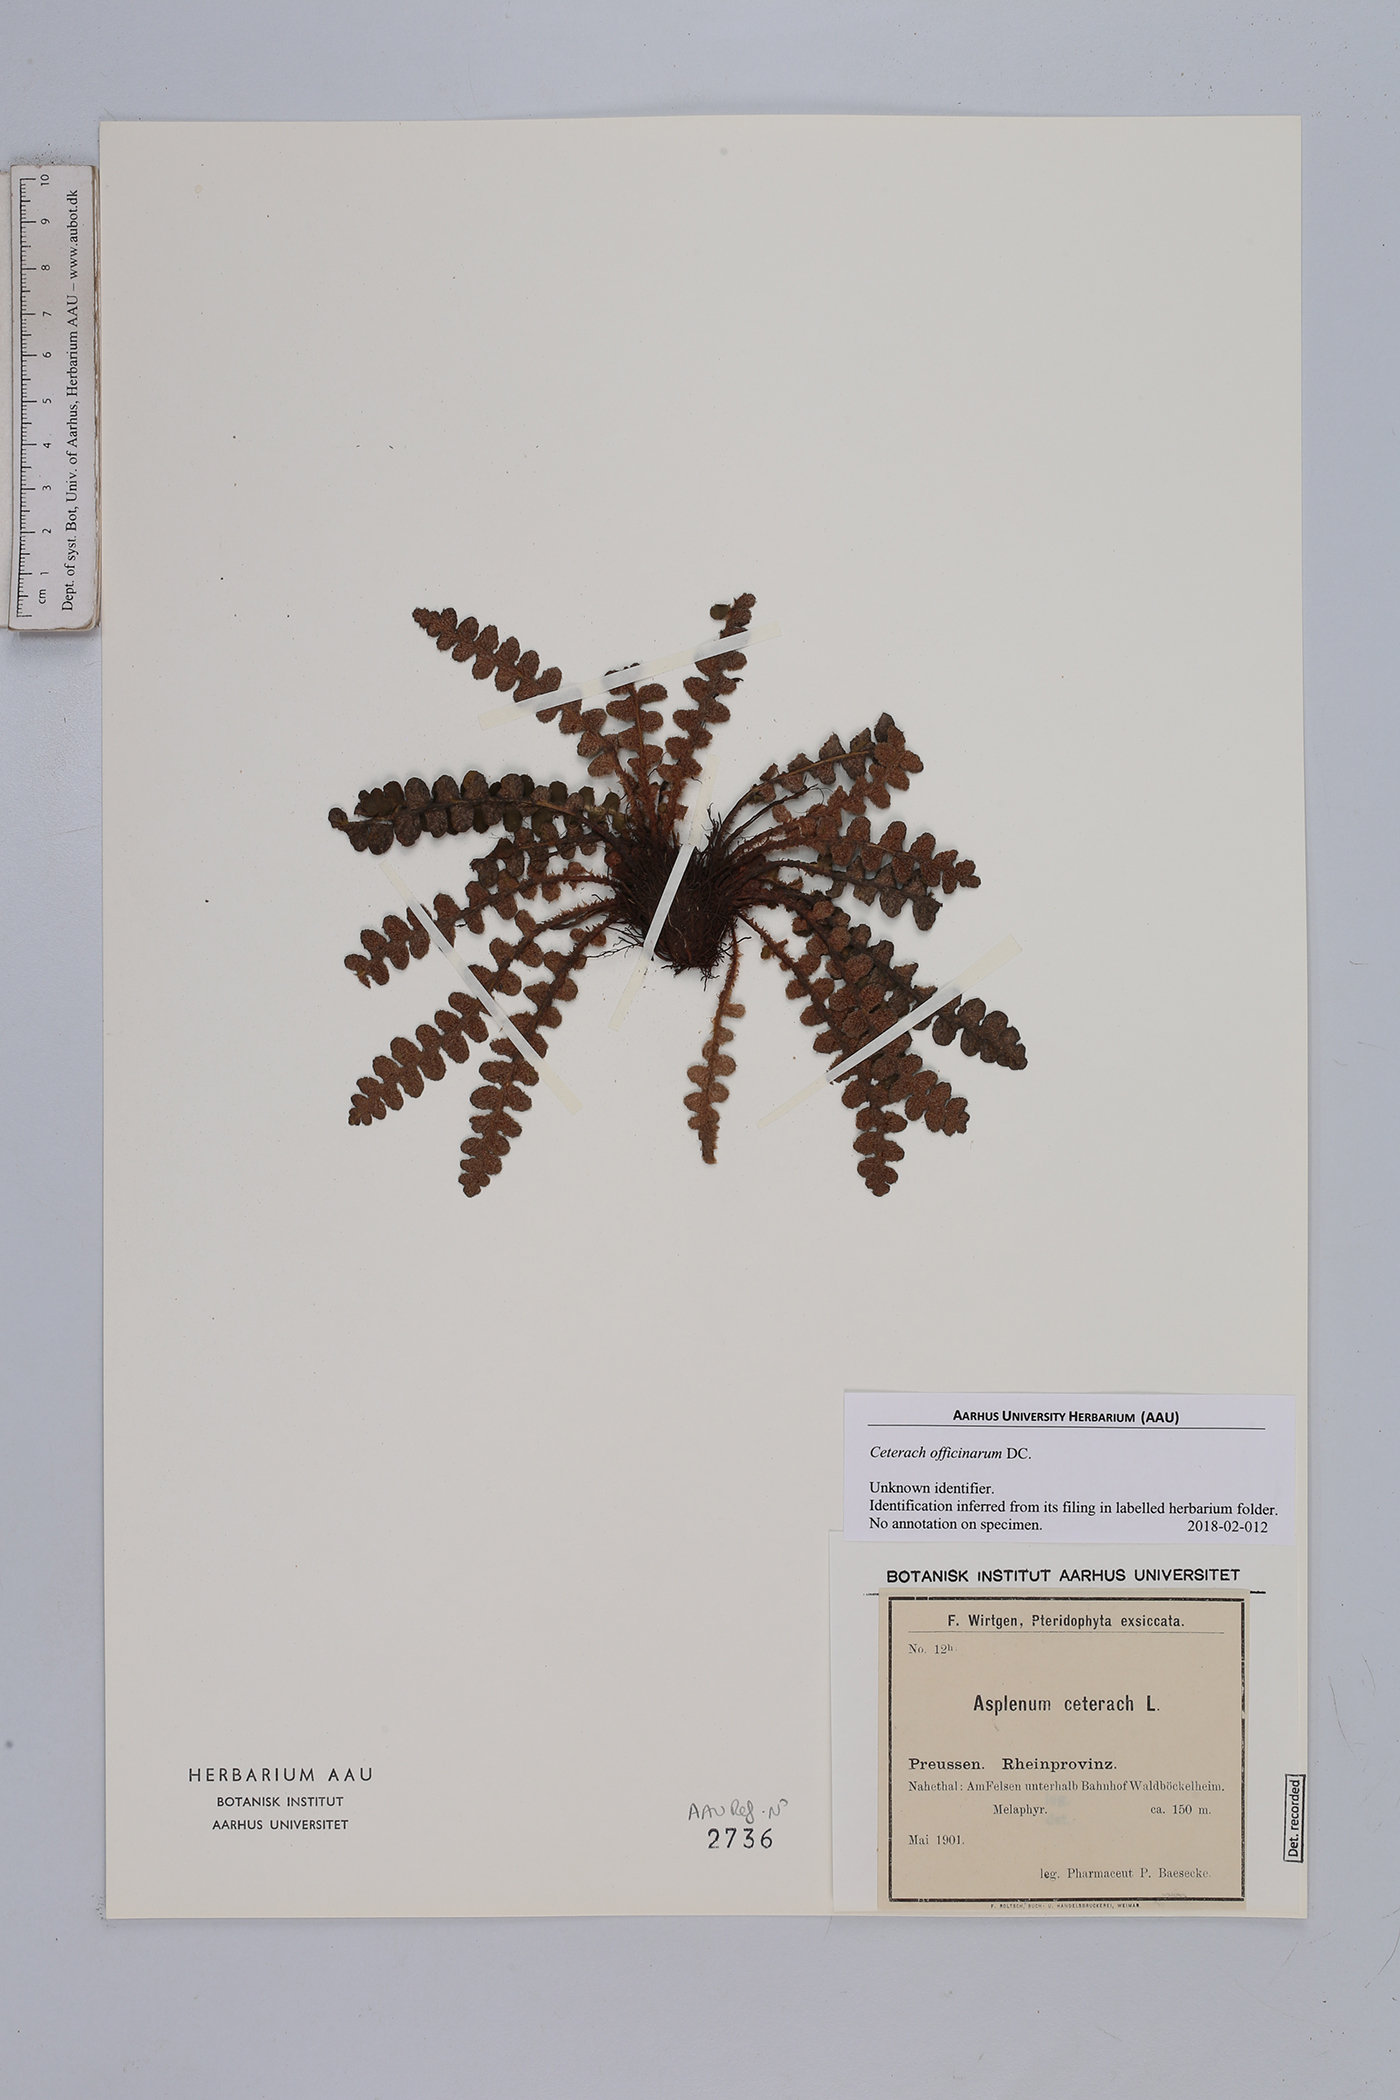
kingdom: Plantae
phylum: Tracheophyta
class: Polypodiopsida
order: Polypodiales
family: Aspleniaceae
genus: Asplenium
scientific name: Asplenium ceterach
